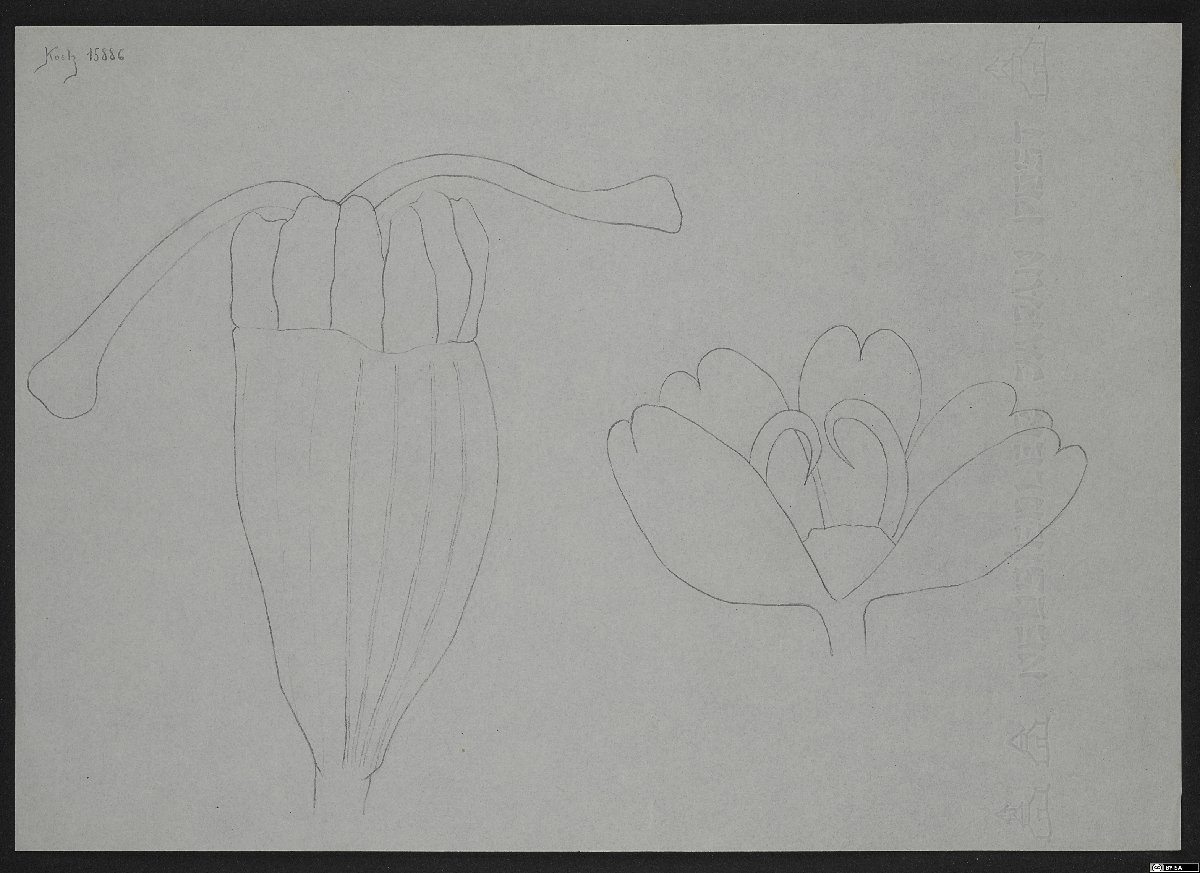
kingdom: Plantae
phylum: Tracheophyta
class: Magnoliopsida
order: Apiales
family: Apiaceae
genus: Ferula
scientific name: Ferula pseudalliacea
